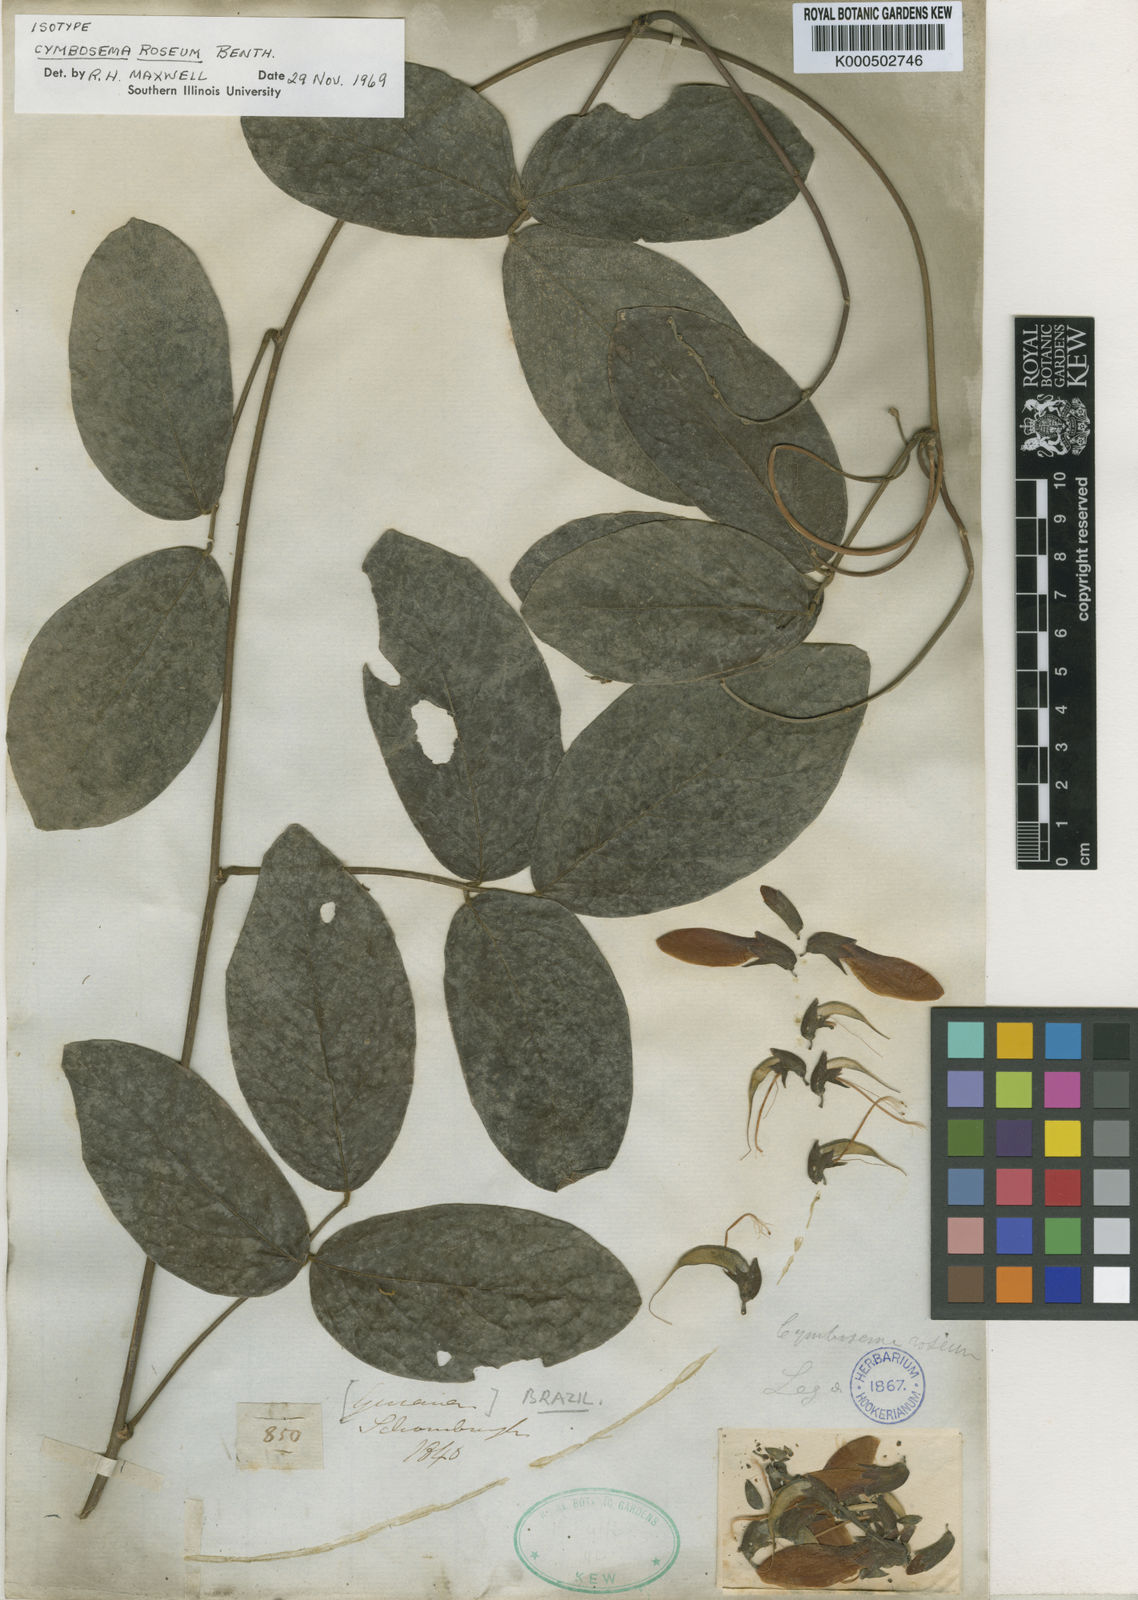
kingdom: Plantae
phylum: Tracheophyta
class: Magnoliopsida
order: Fabales
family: Fabaceae
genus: Cymbosema
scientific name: Cymbosema roseum
